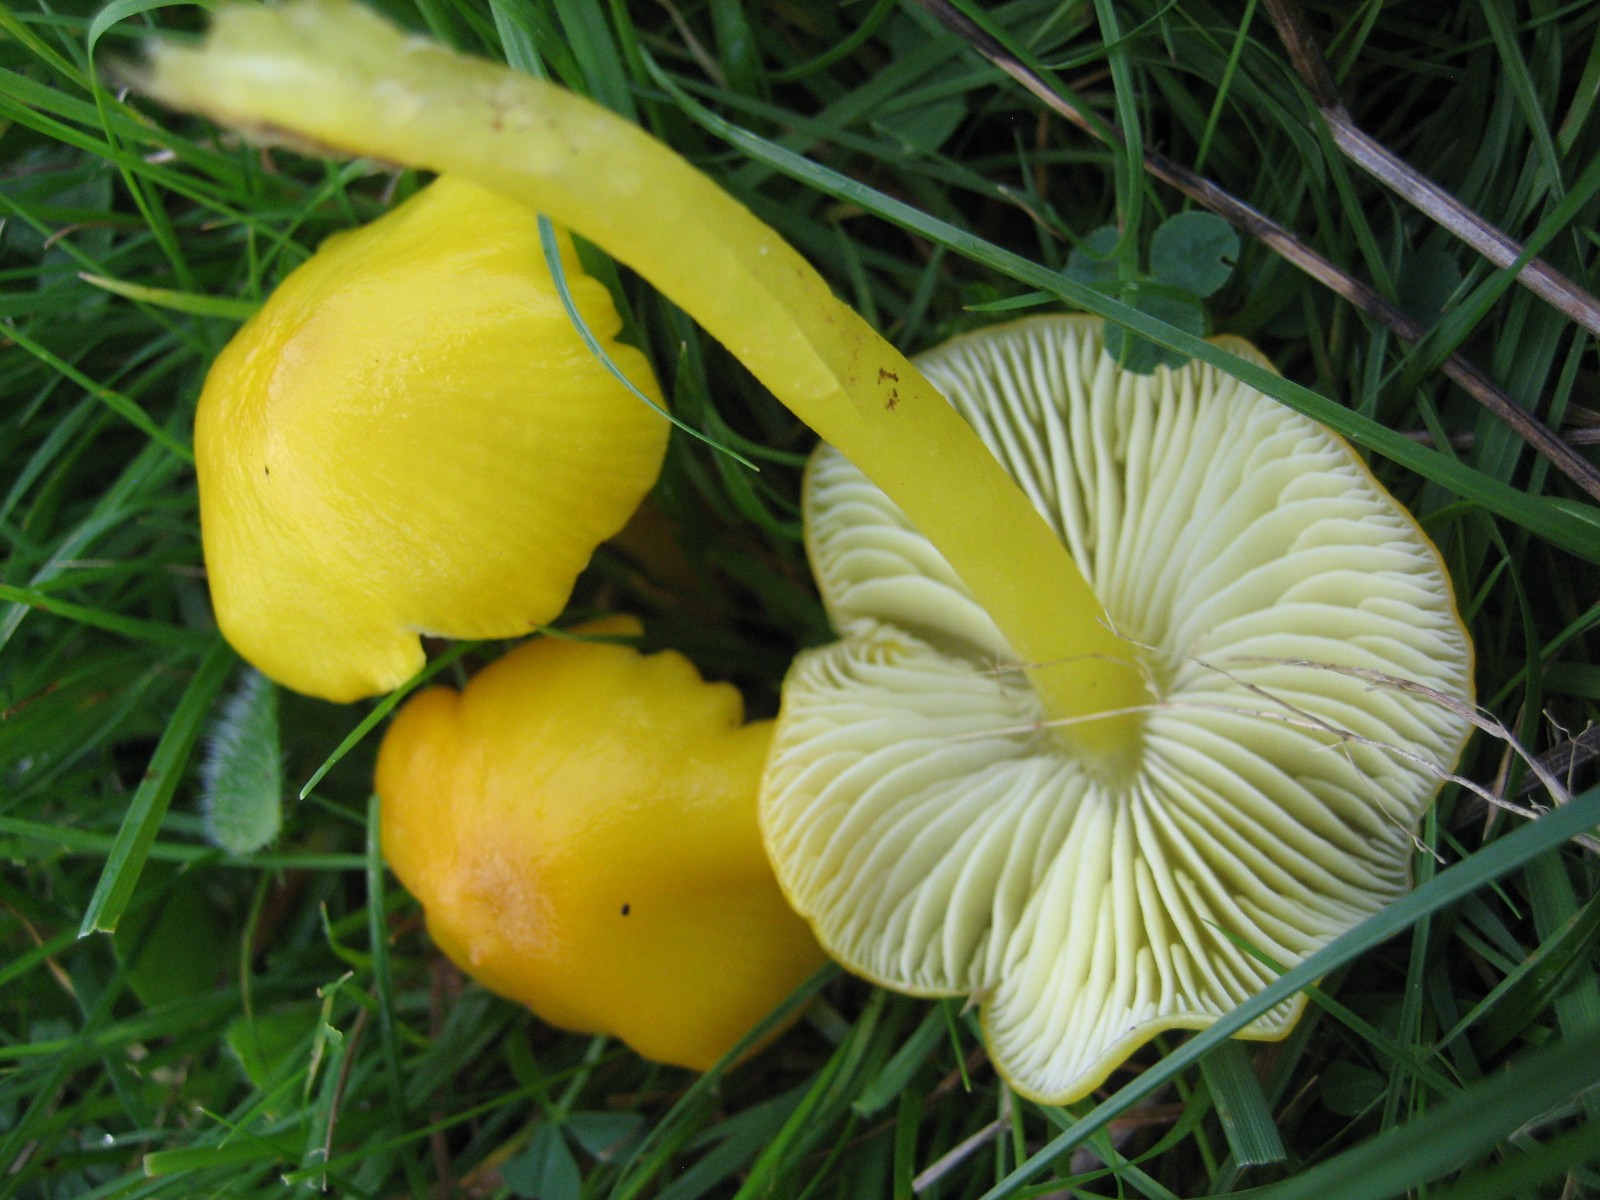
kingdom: Fungi
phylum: Basidiomycota
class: Agaricomycetes
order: Agaricales
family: Hygrophoraceae
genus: Hygrocybe
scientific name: Hygrocybe chlorophana
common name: gul vokshat
